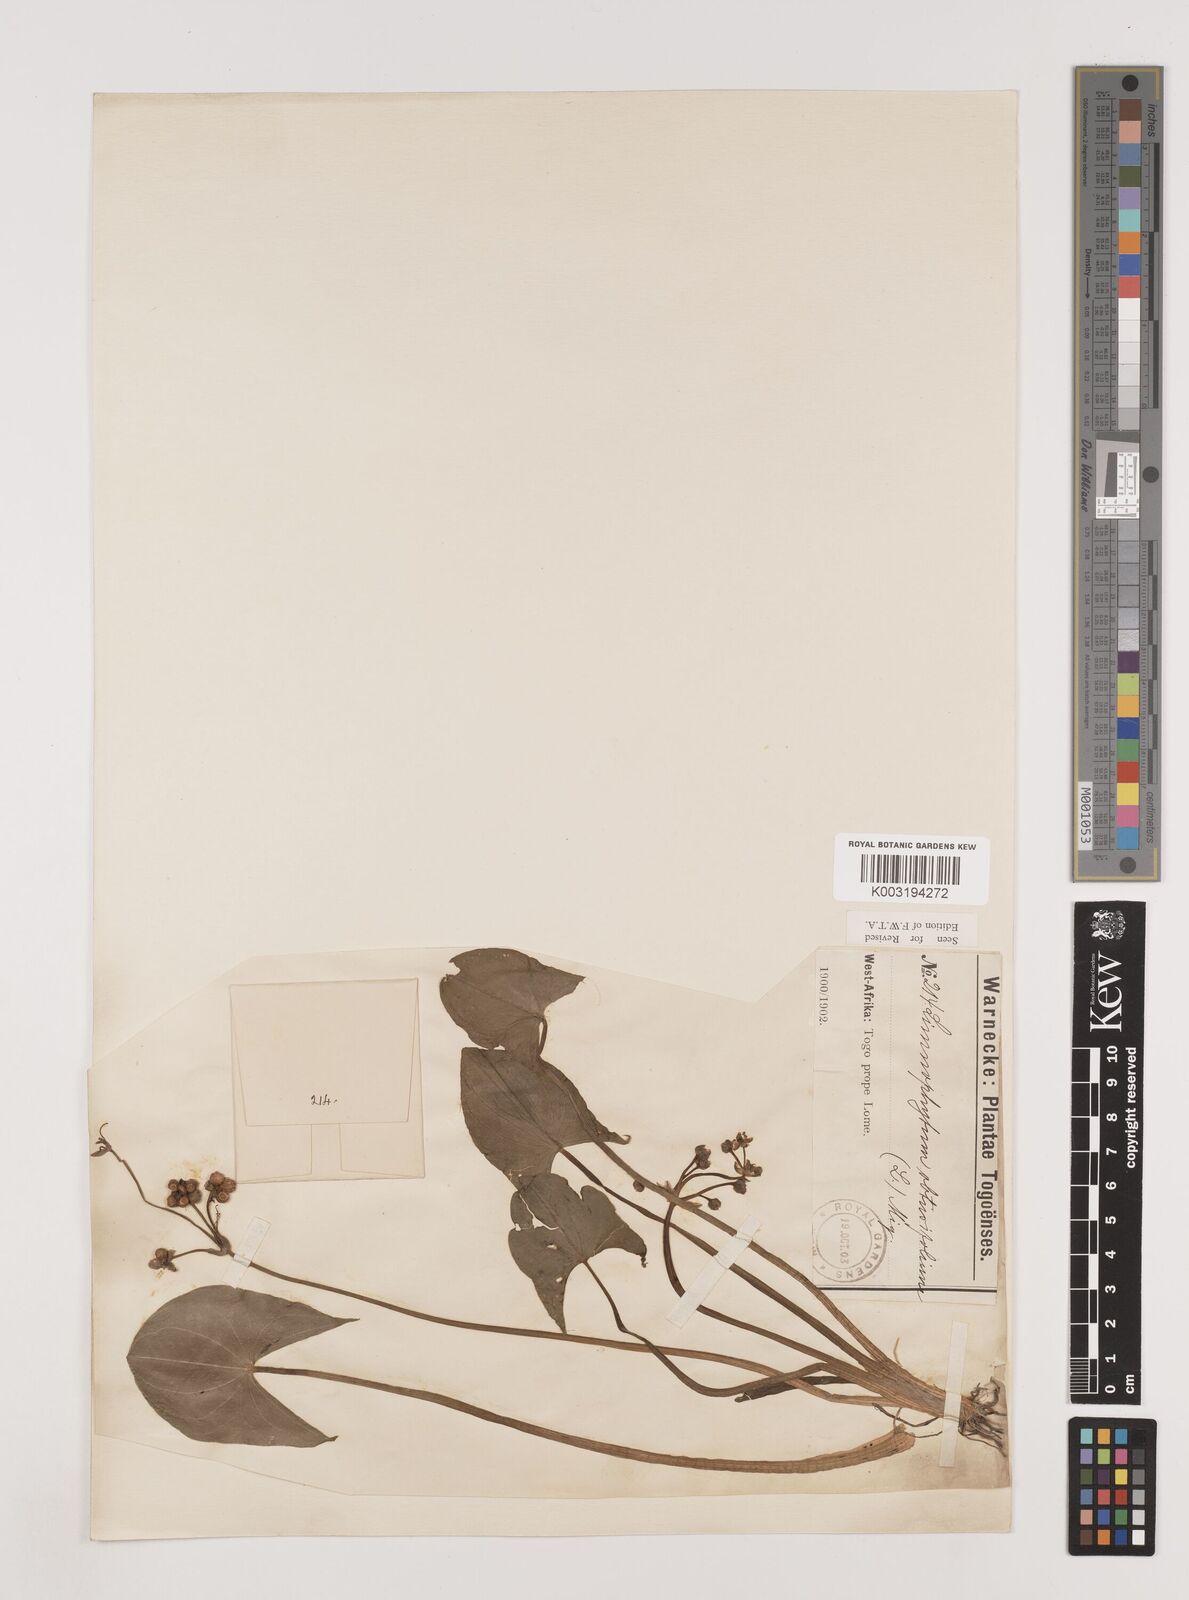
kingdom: Plantae
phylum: Tracheophyta
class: Liliopsida
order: Alismatales
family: Alismataceae
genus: Limnophyton
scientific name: Limnophyton obtusifolium
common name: Arrow head
